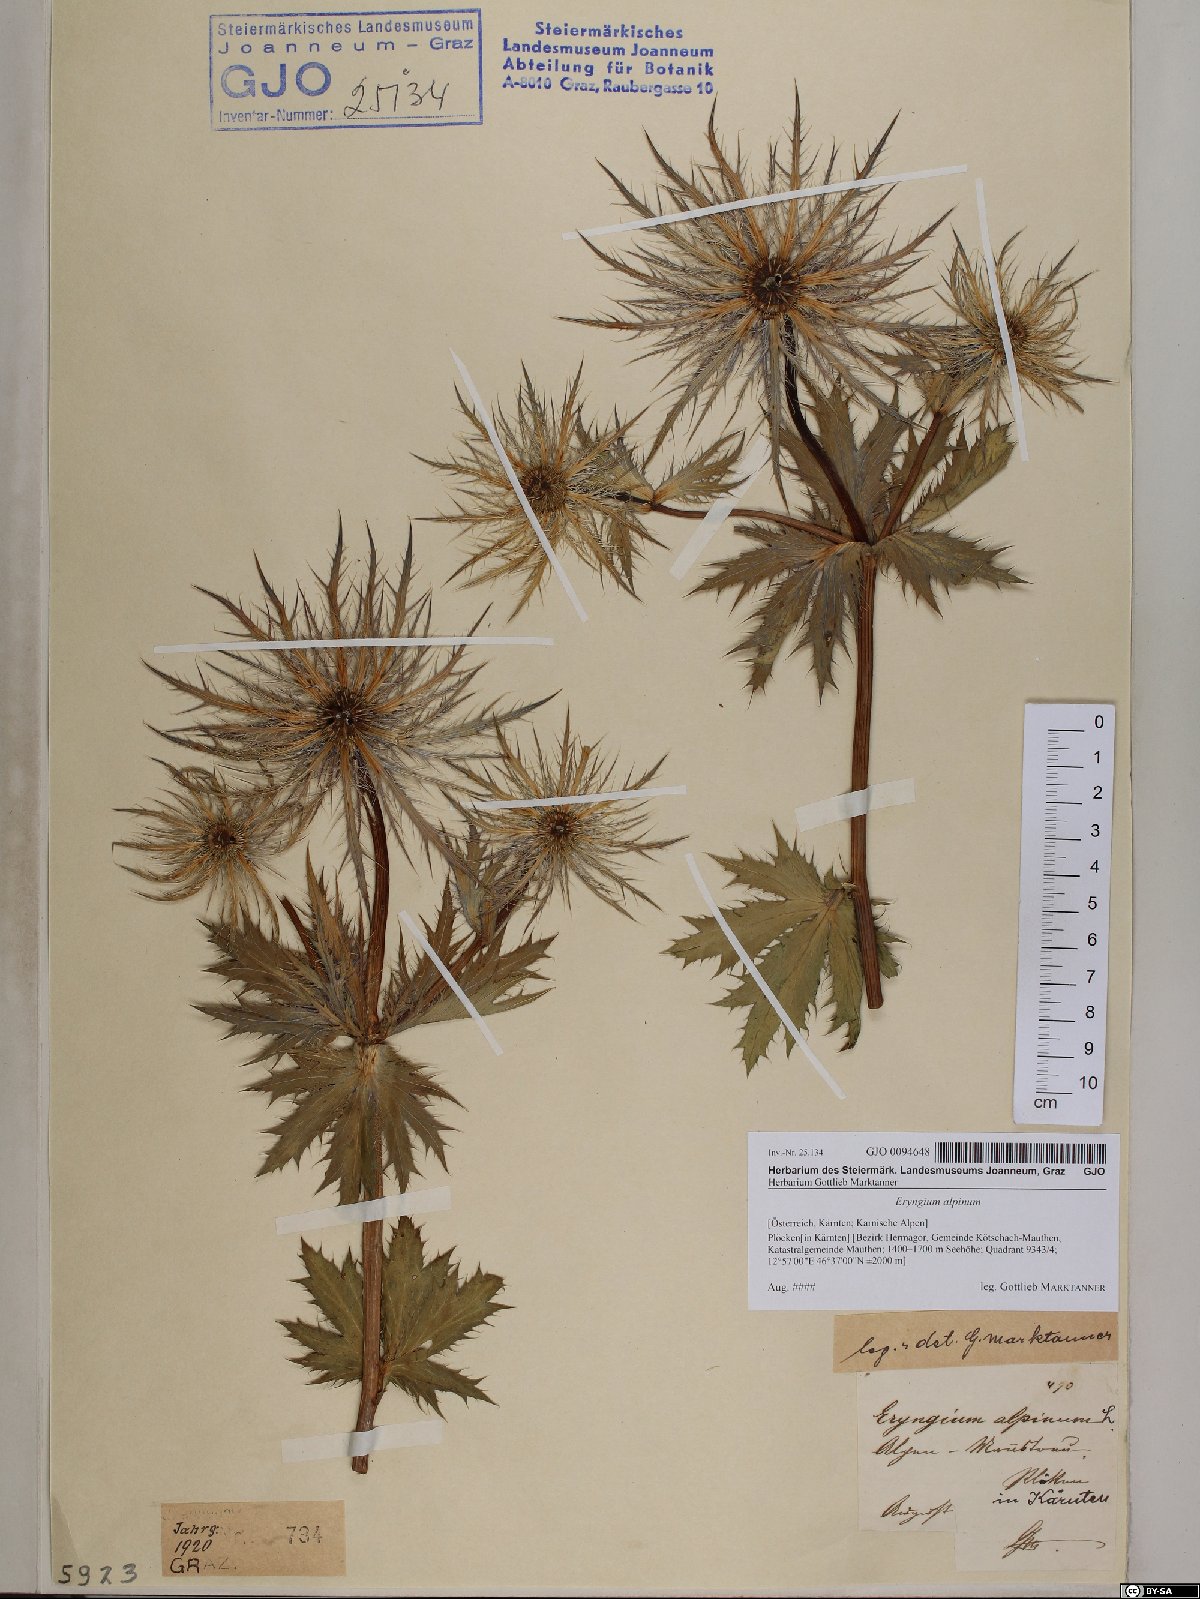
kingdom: Plantae
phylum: Tracheophyta
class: Magnoliopsida
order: Apiales
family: Apiaceae
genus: Eryngium
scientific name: Eryngium alpinum
